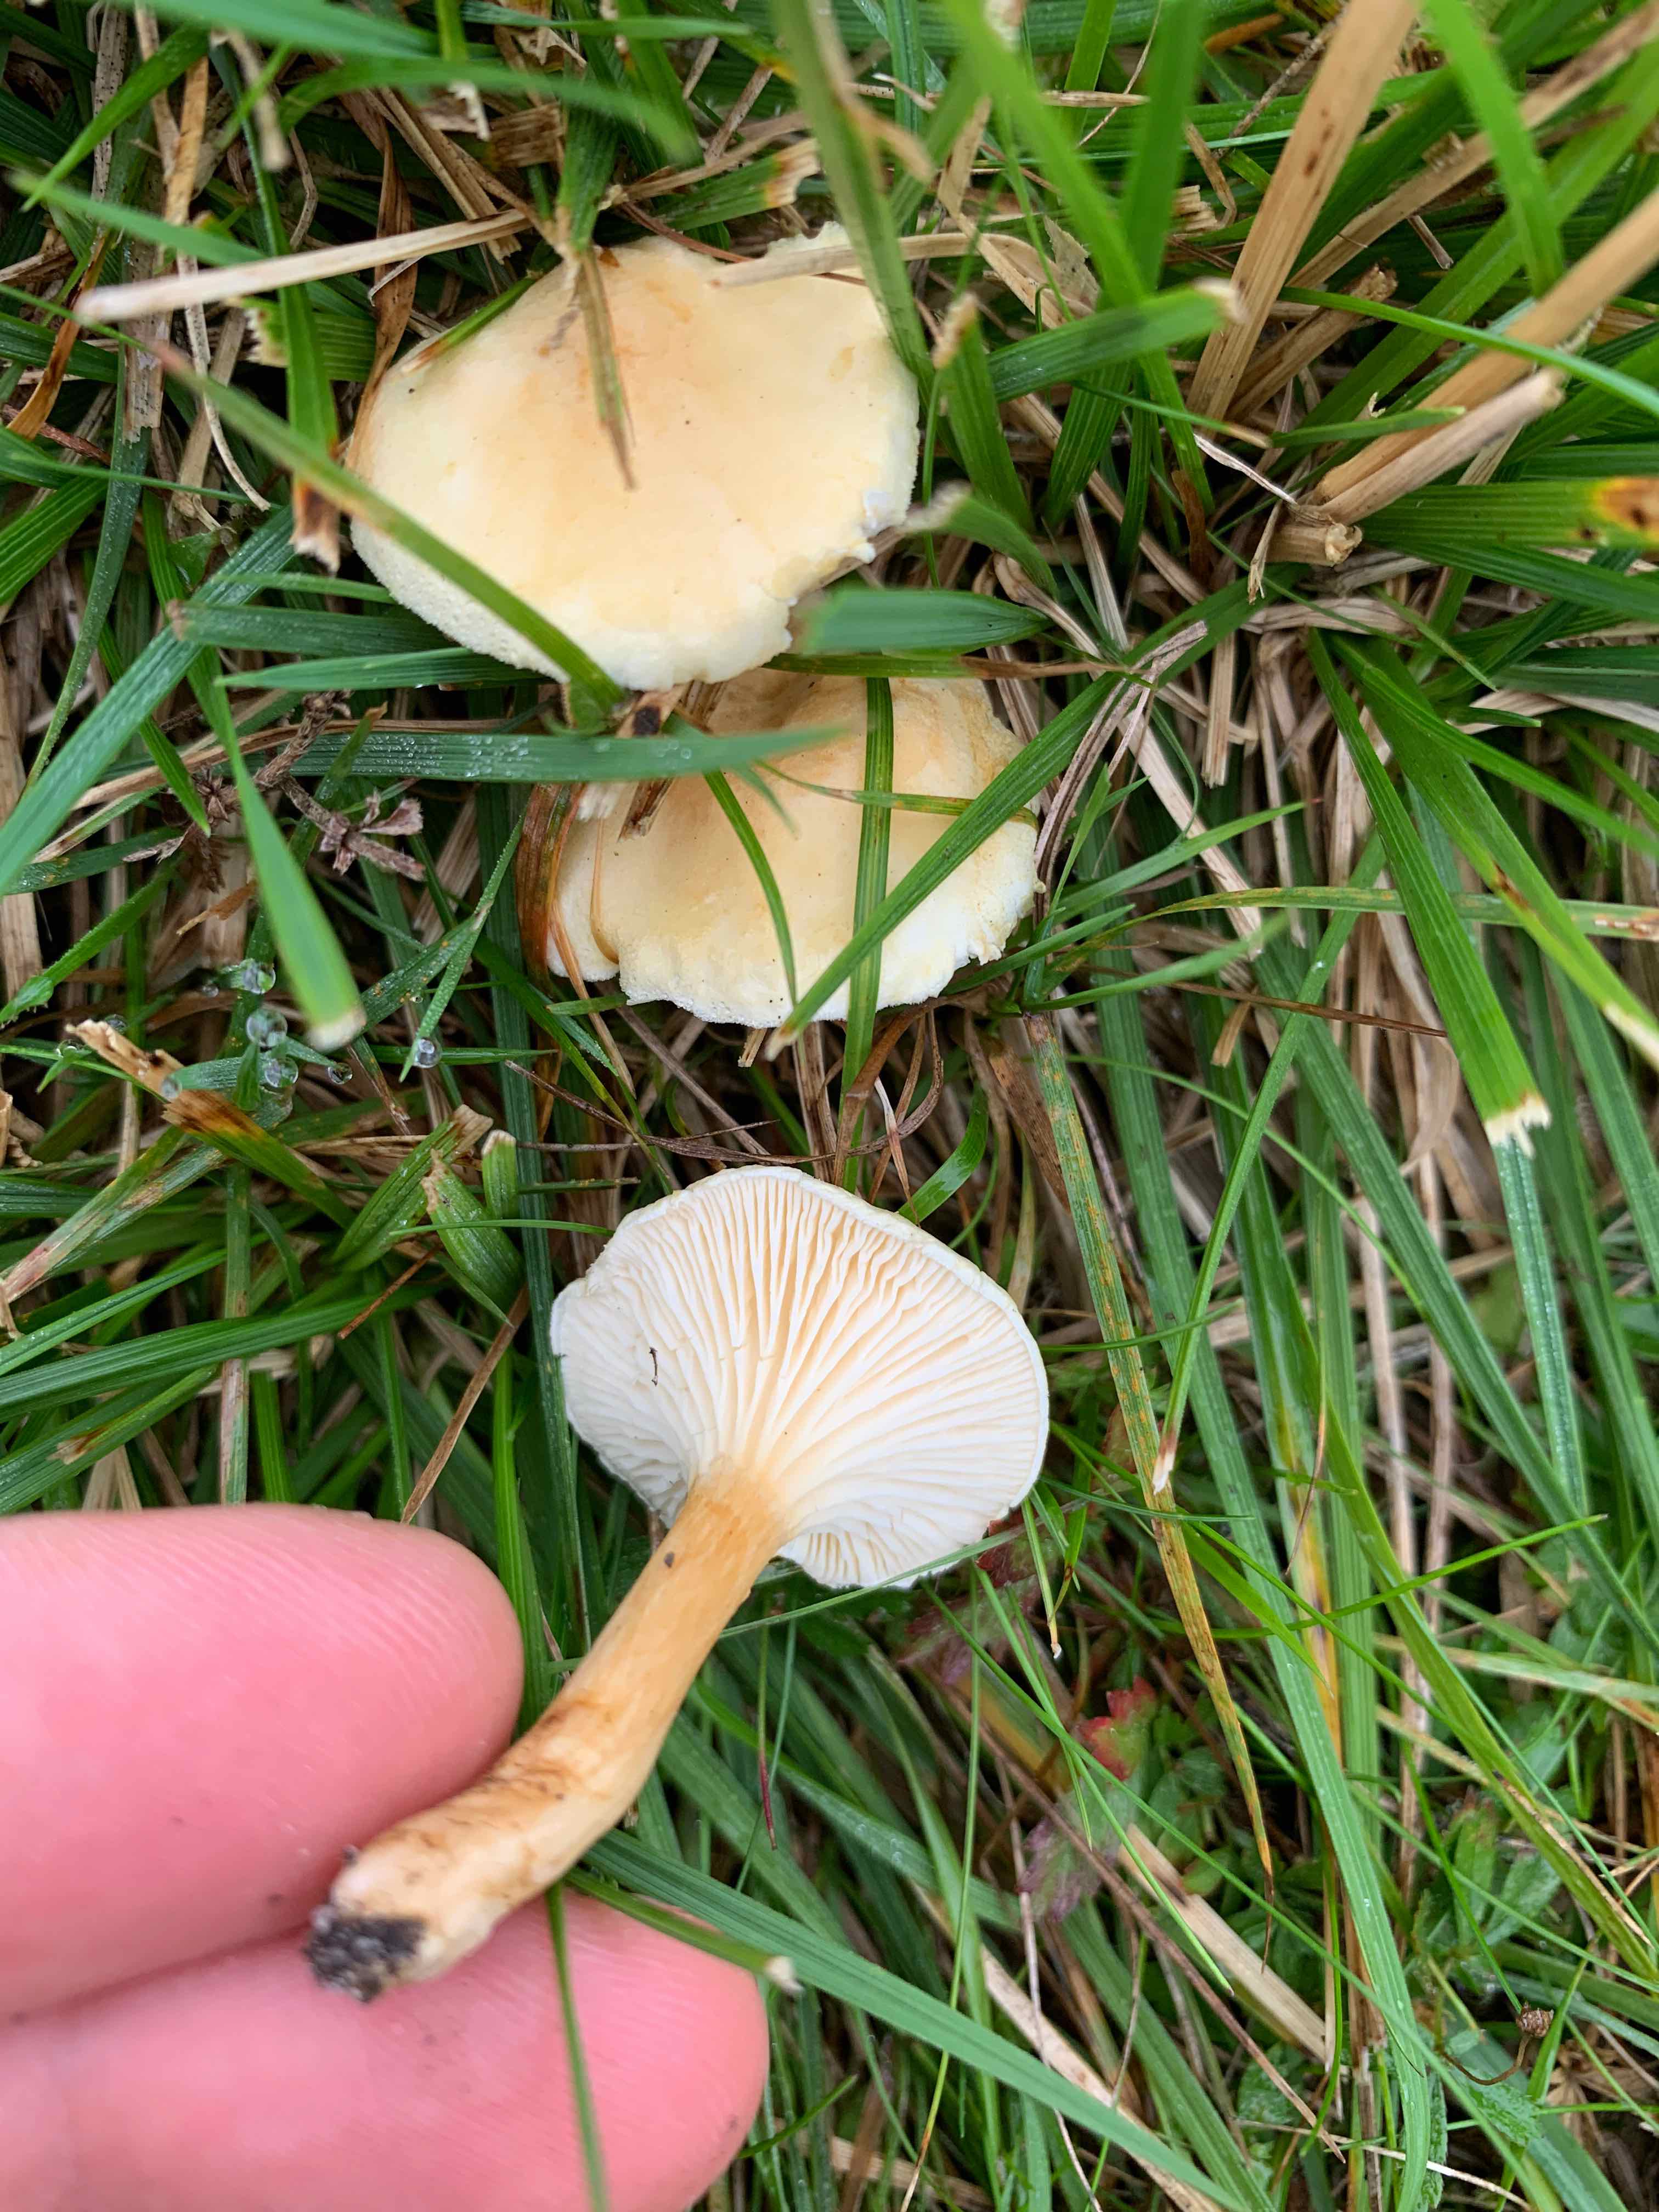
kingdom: Fungi
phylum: Basidiomycota
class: Agaricomycetes
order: Boletales
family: Hygrophoropsidaceae
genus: Hygrophoropsis
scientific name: Hygrophoropsis pallida
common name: bleg orangekantarel
